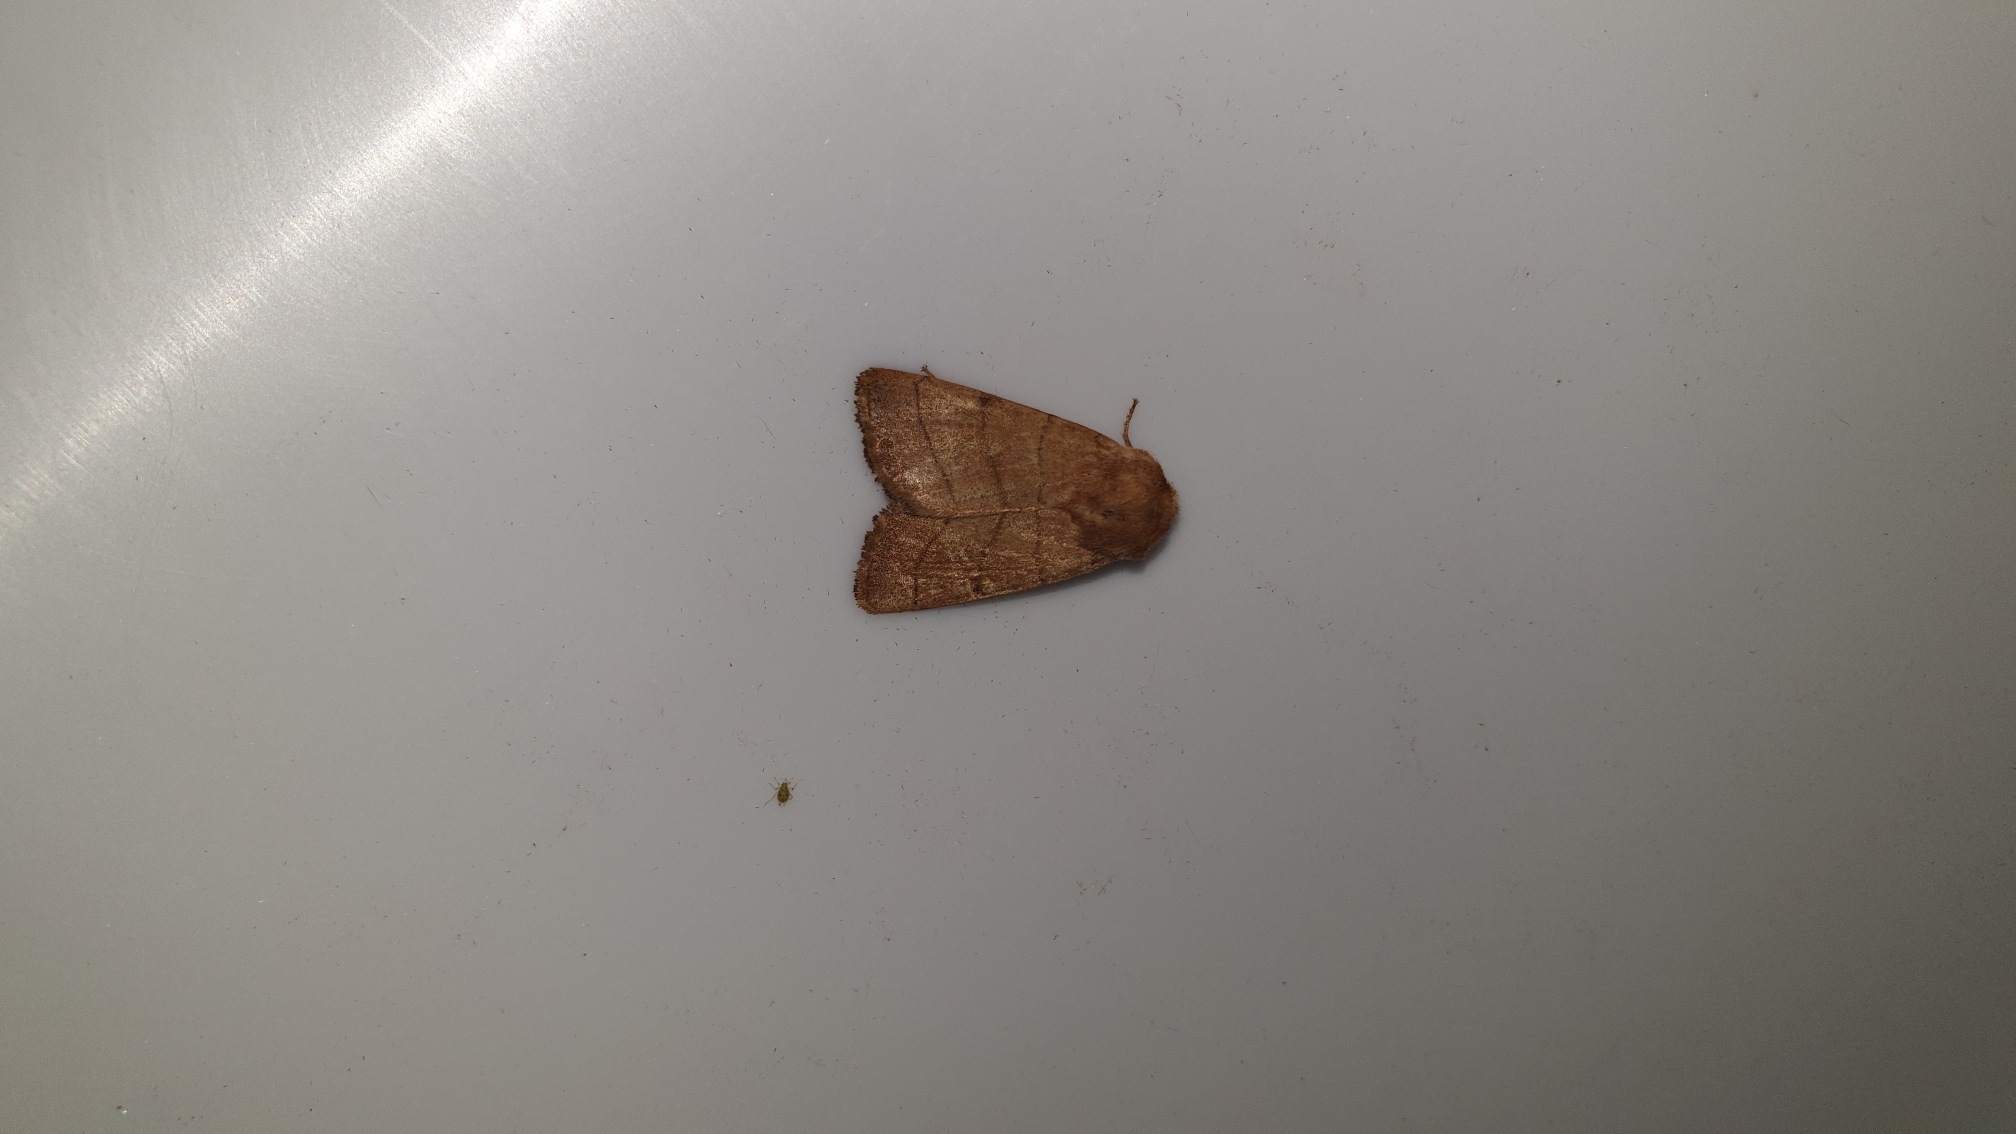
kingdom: Animalia
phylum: Arthropoda
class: Insecta
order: Lepidoptera
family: Noctuidae
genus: Charanyca
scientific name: Charanyca trigrammica
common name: Firestreget ugle
